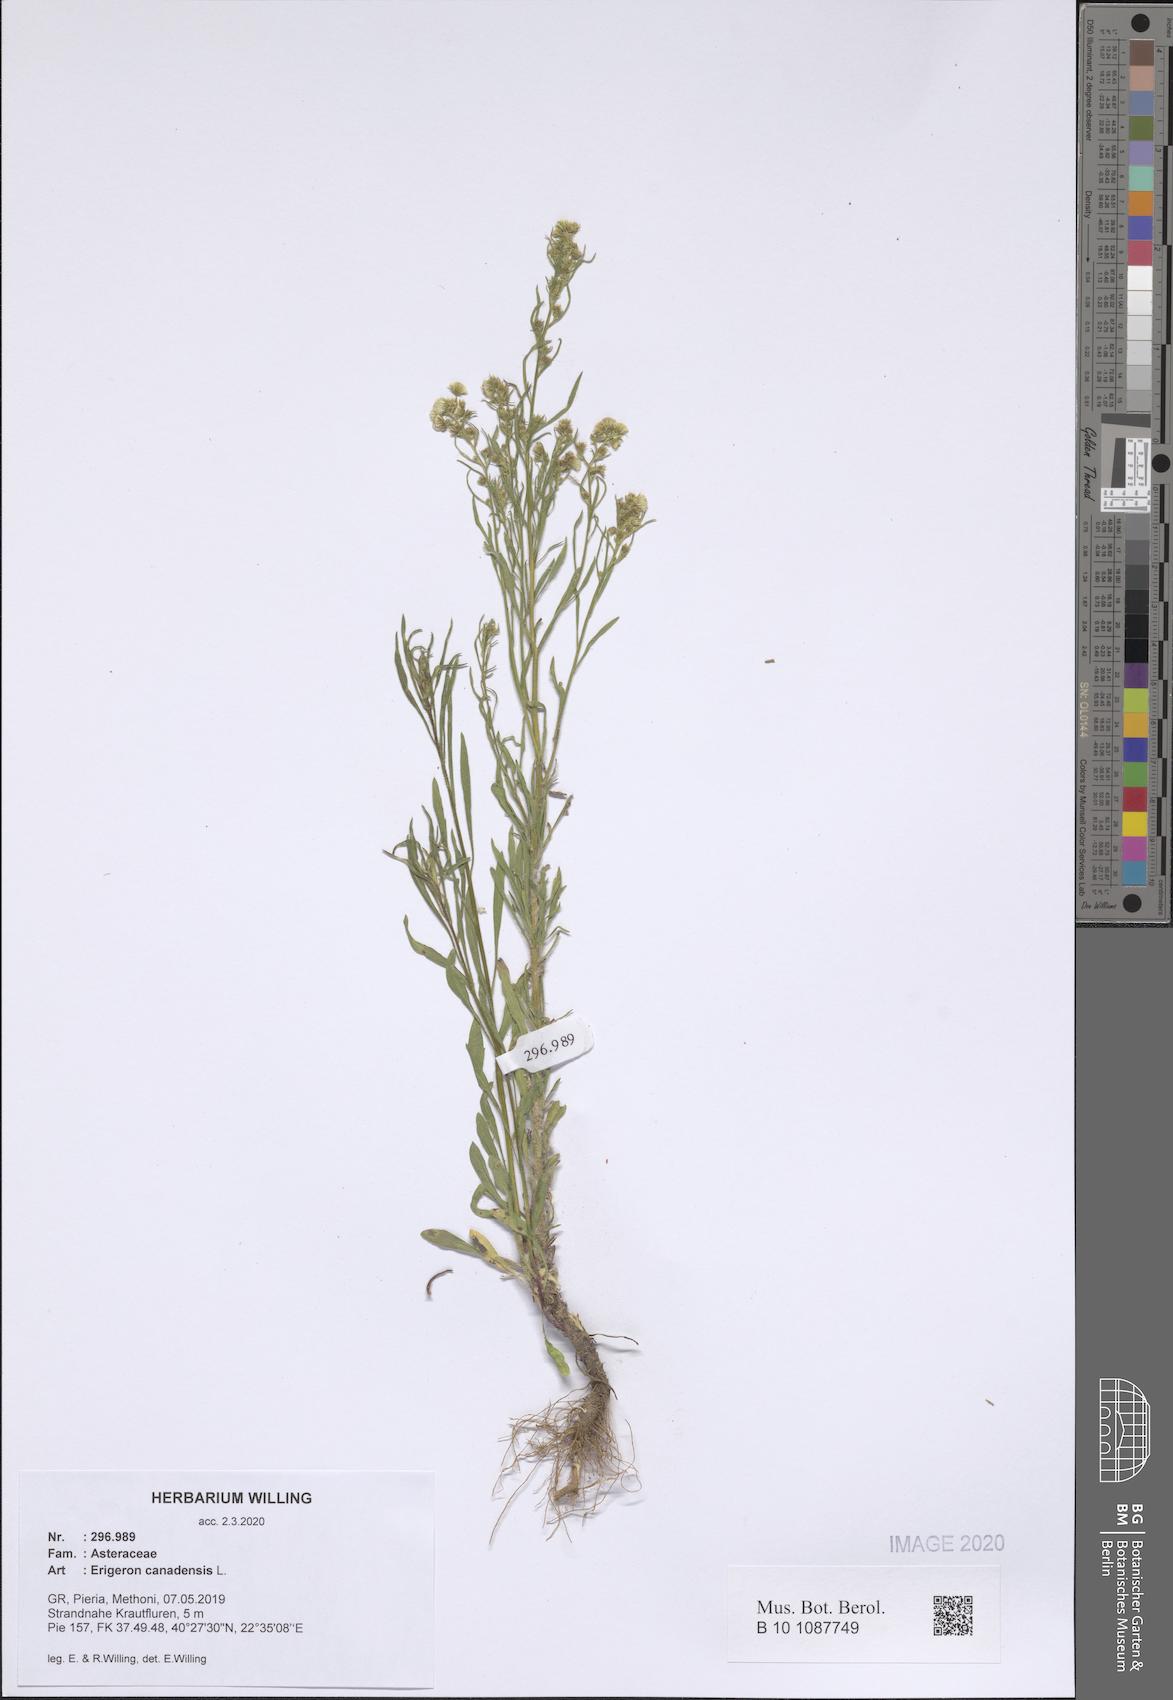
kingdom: Plantae
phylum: Tracheophyta
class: Magnoliopsida
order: Asterales
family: Asteraceae
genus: Erigeron
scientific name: Erigeron canadensis
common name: Canadian fleabane
